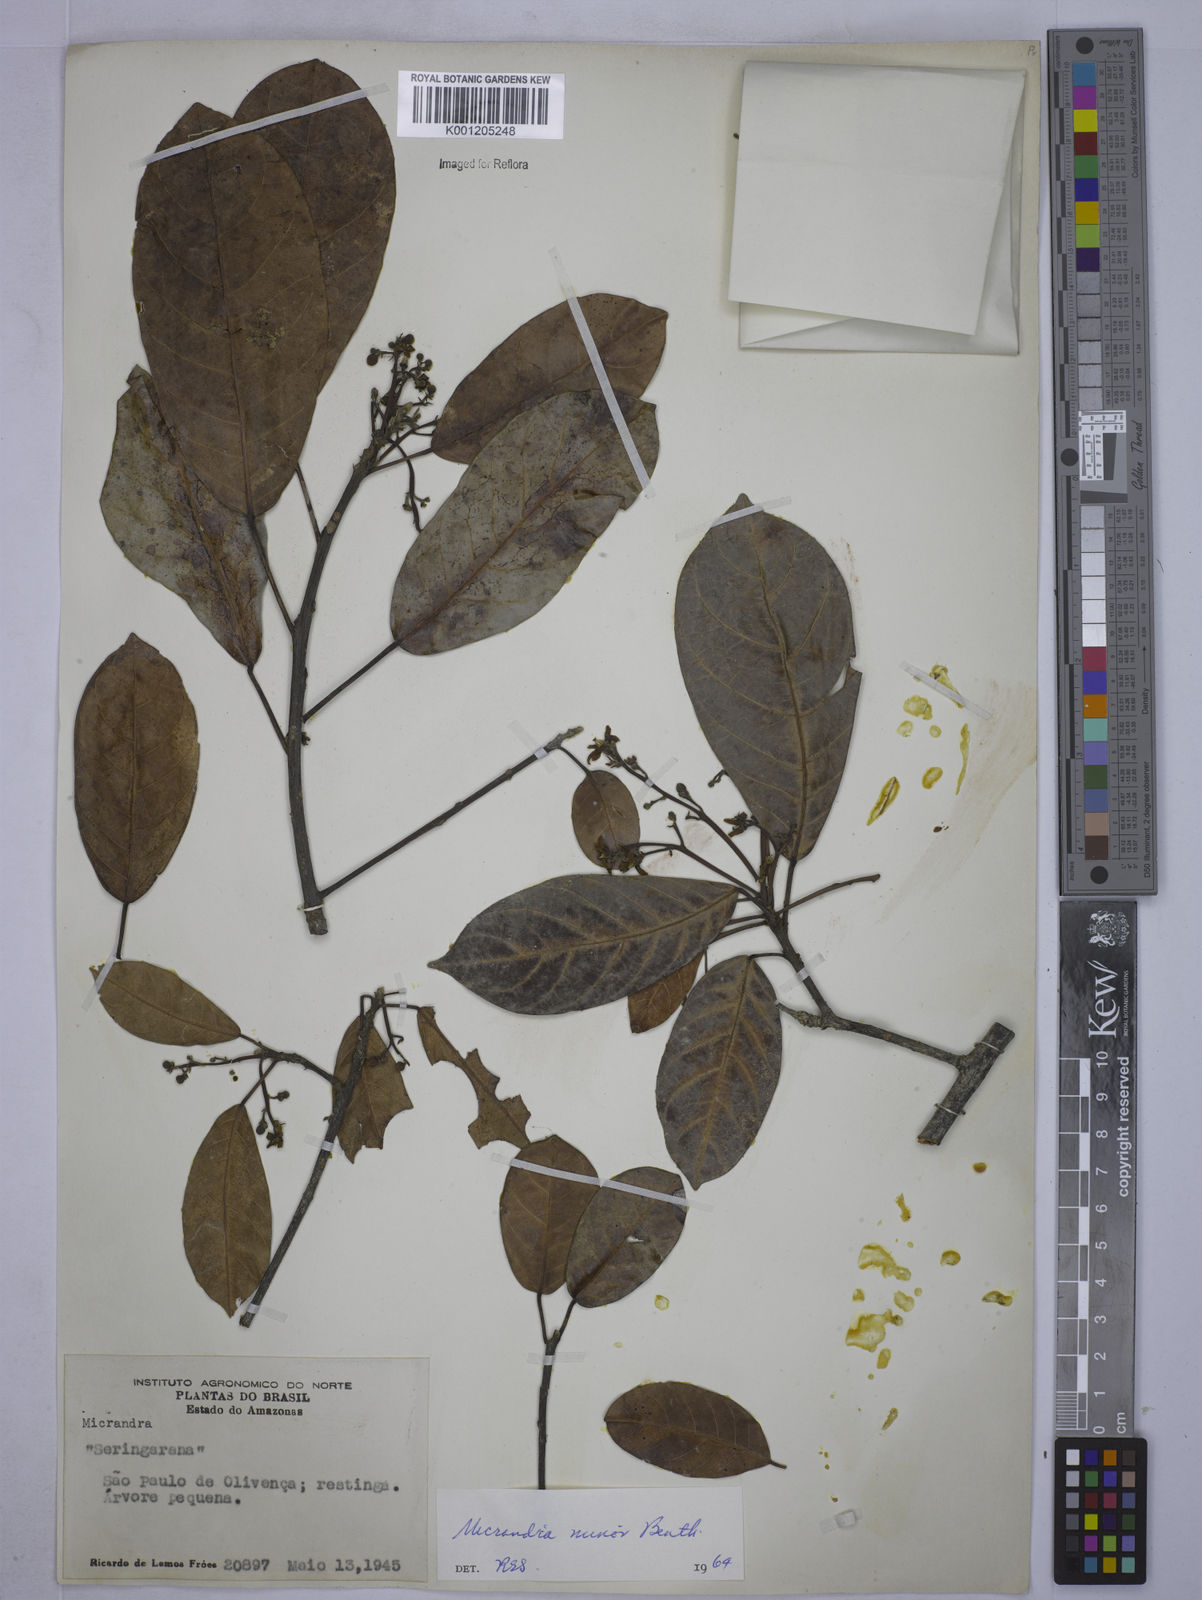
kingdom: Plantae
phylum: Tracheophyta
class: Magnoliopsida
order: Malpighiales
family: Euphorbiaceae
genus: Micrandra
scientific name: Micrandra minor
